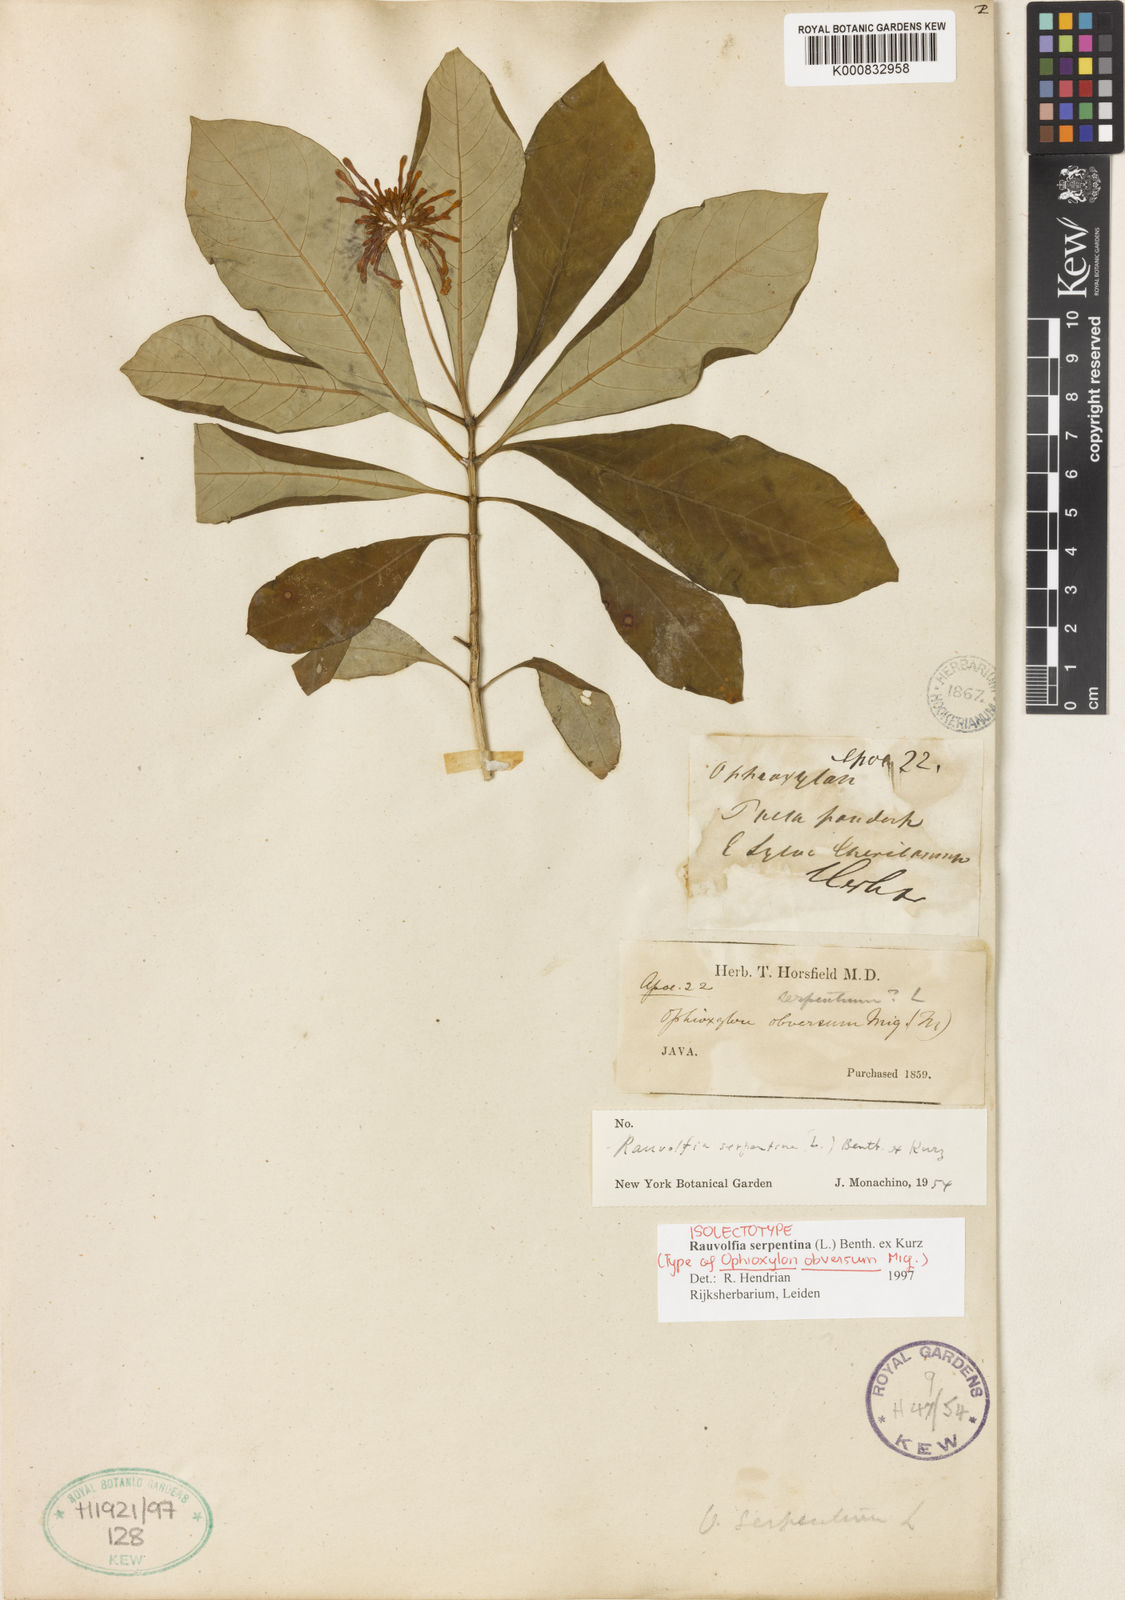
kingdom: Plantae
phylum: Tracheophyta
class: Magnoliopsida
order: Gentianales
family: Apocynaceae
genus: Rauvolfia
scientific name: Rauvolfia serpentina
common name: Ajmaline
